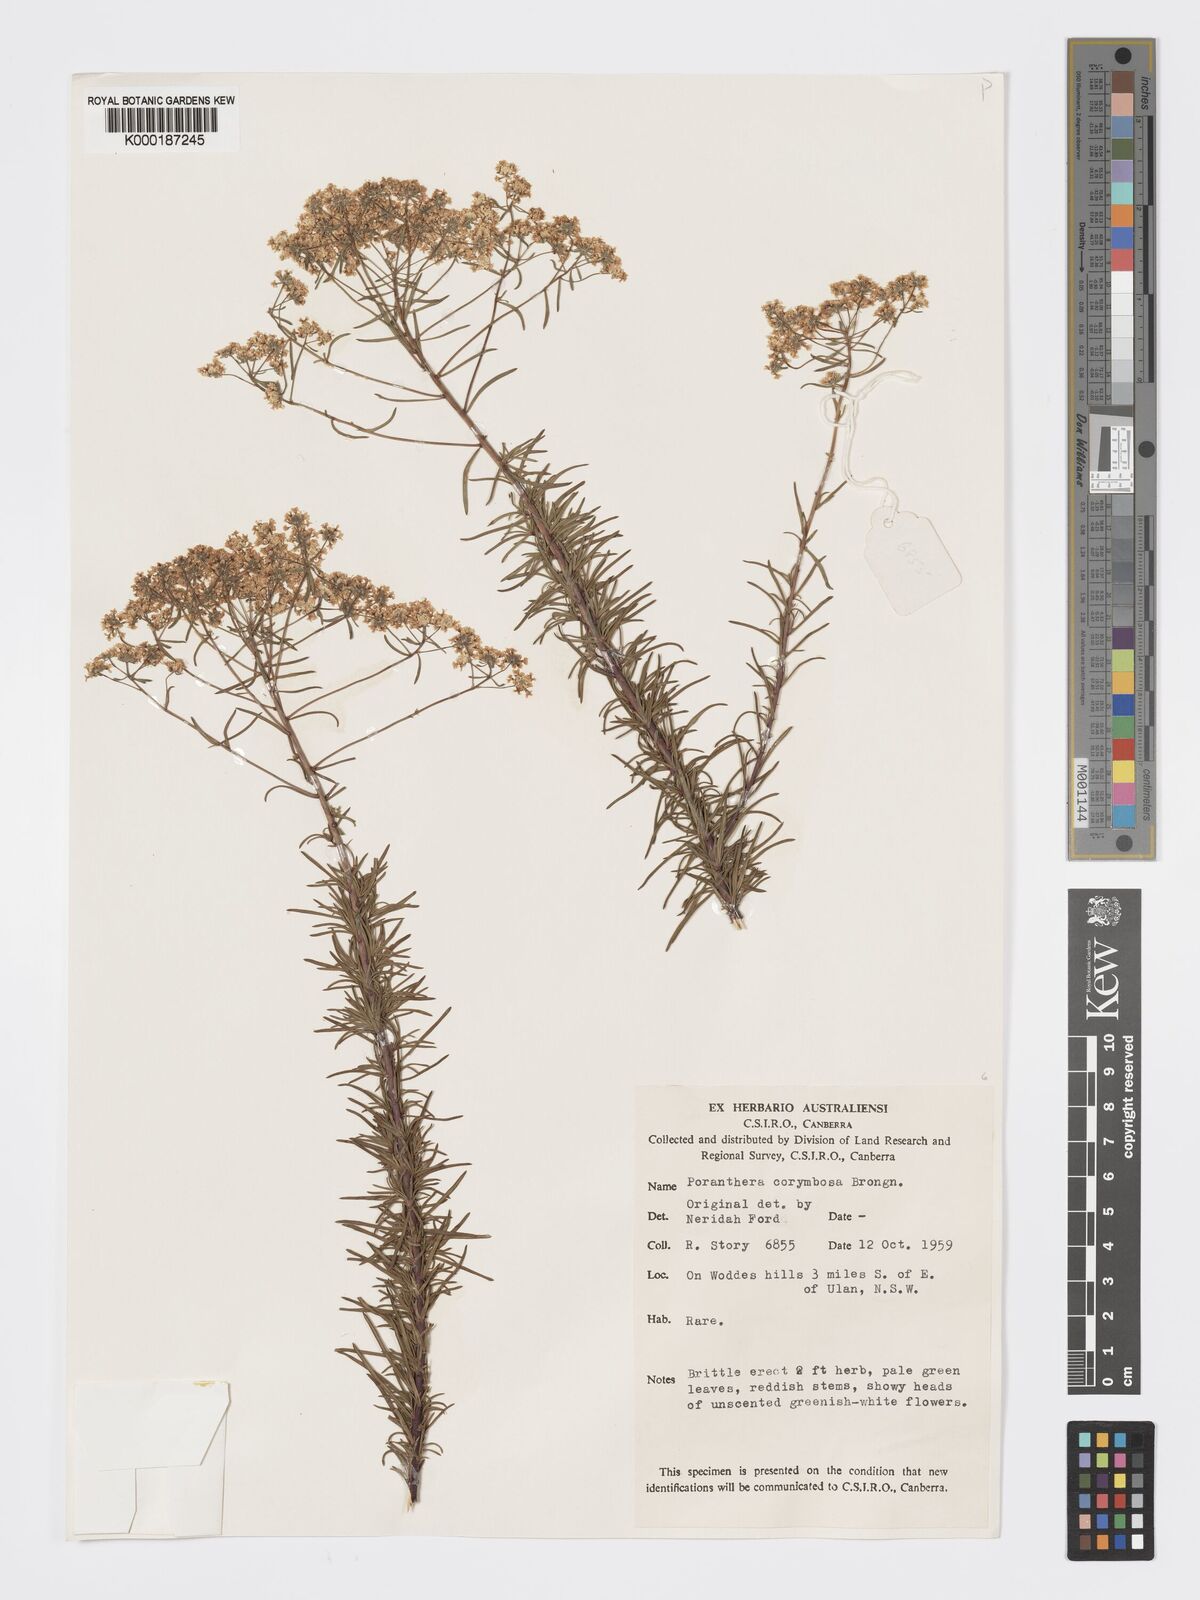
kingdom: Plantae
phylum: Tracheophyta
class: Magnoliopsida
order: Malpighiales
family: Phyllanthaceae
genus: Poranthera
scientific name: Poranthera corymbosa
